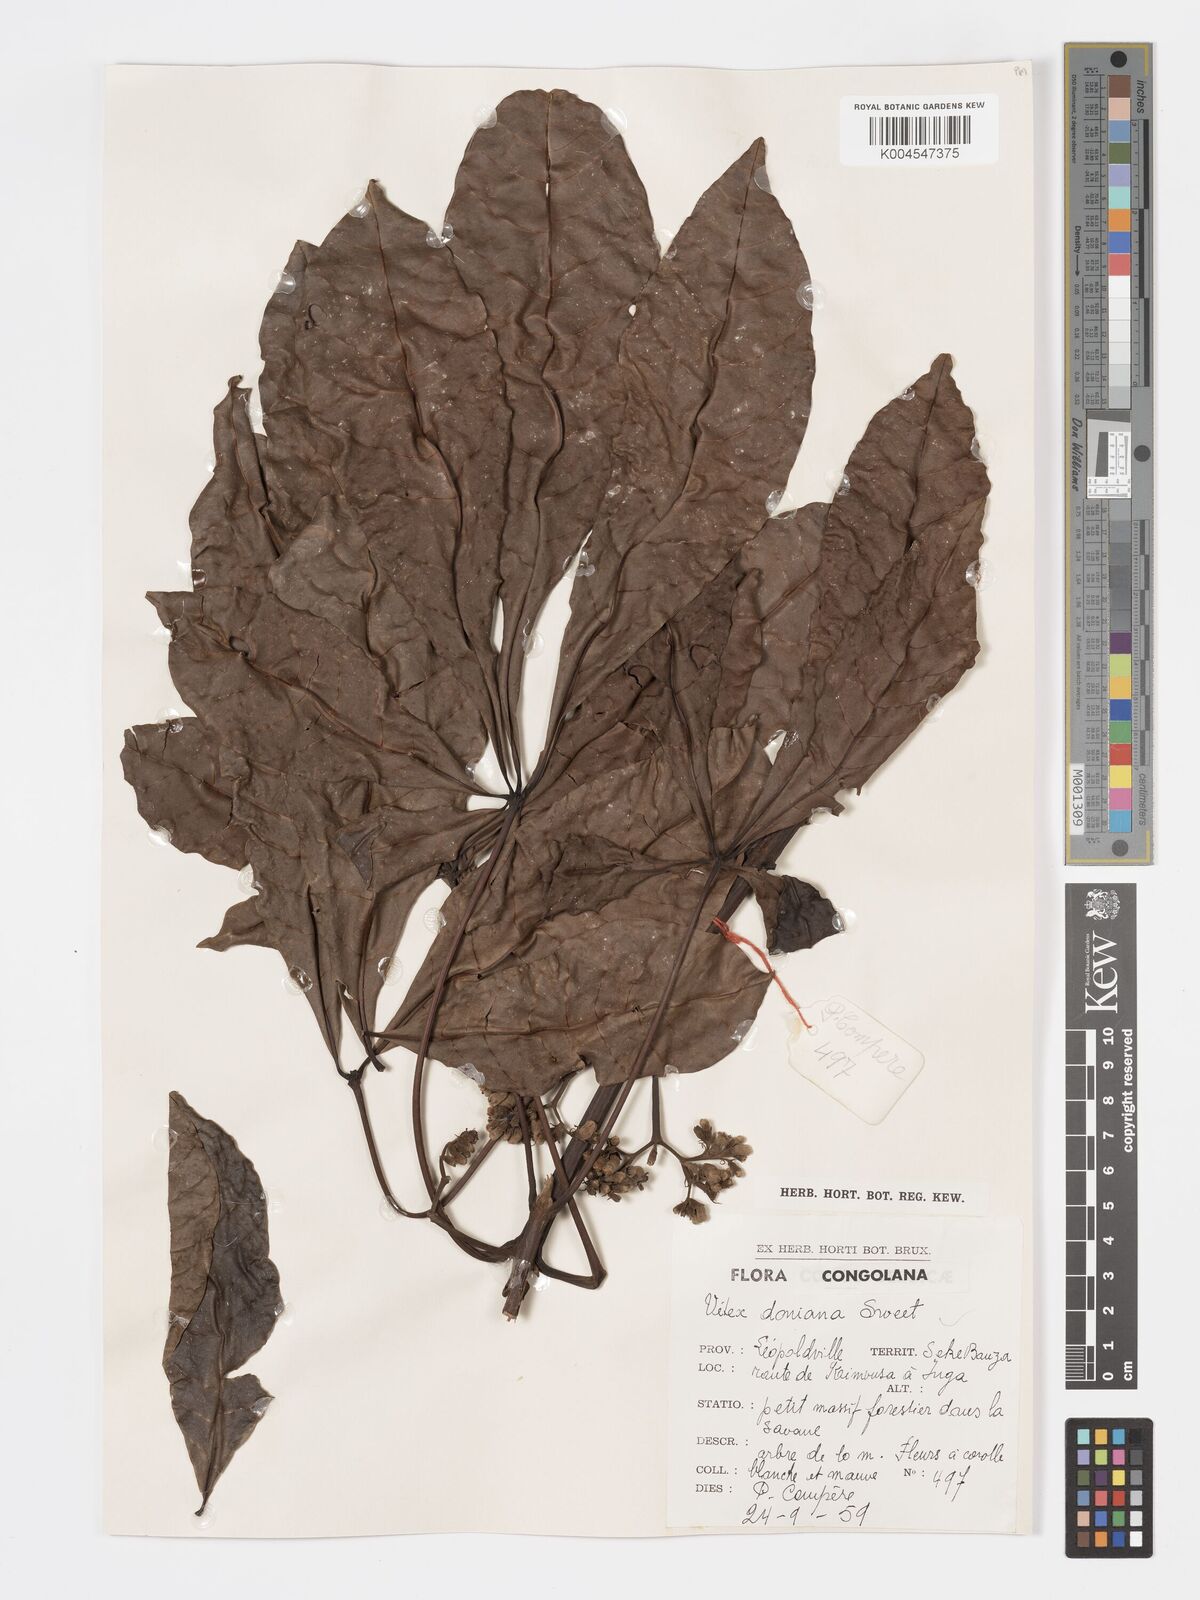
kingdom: Plantae
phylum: Tracheophyta
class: Magnoliopsida
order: Lamiales
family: Lamiaceae
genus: Vitex
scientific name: Vitex doniana
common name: Black plum
